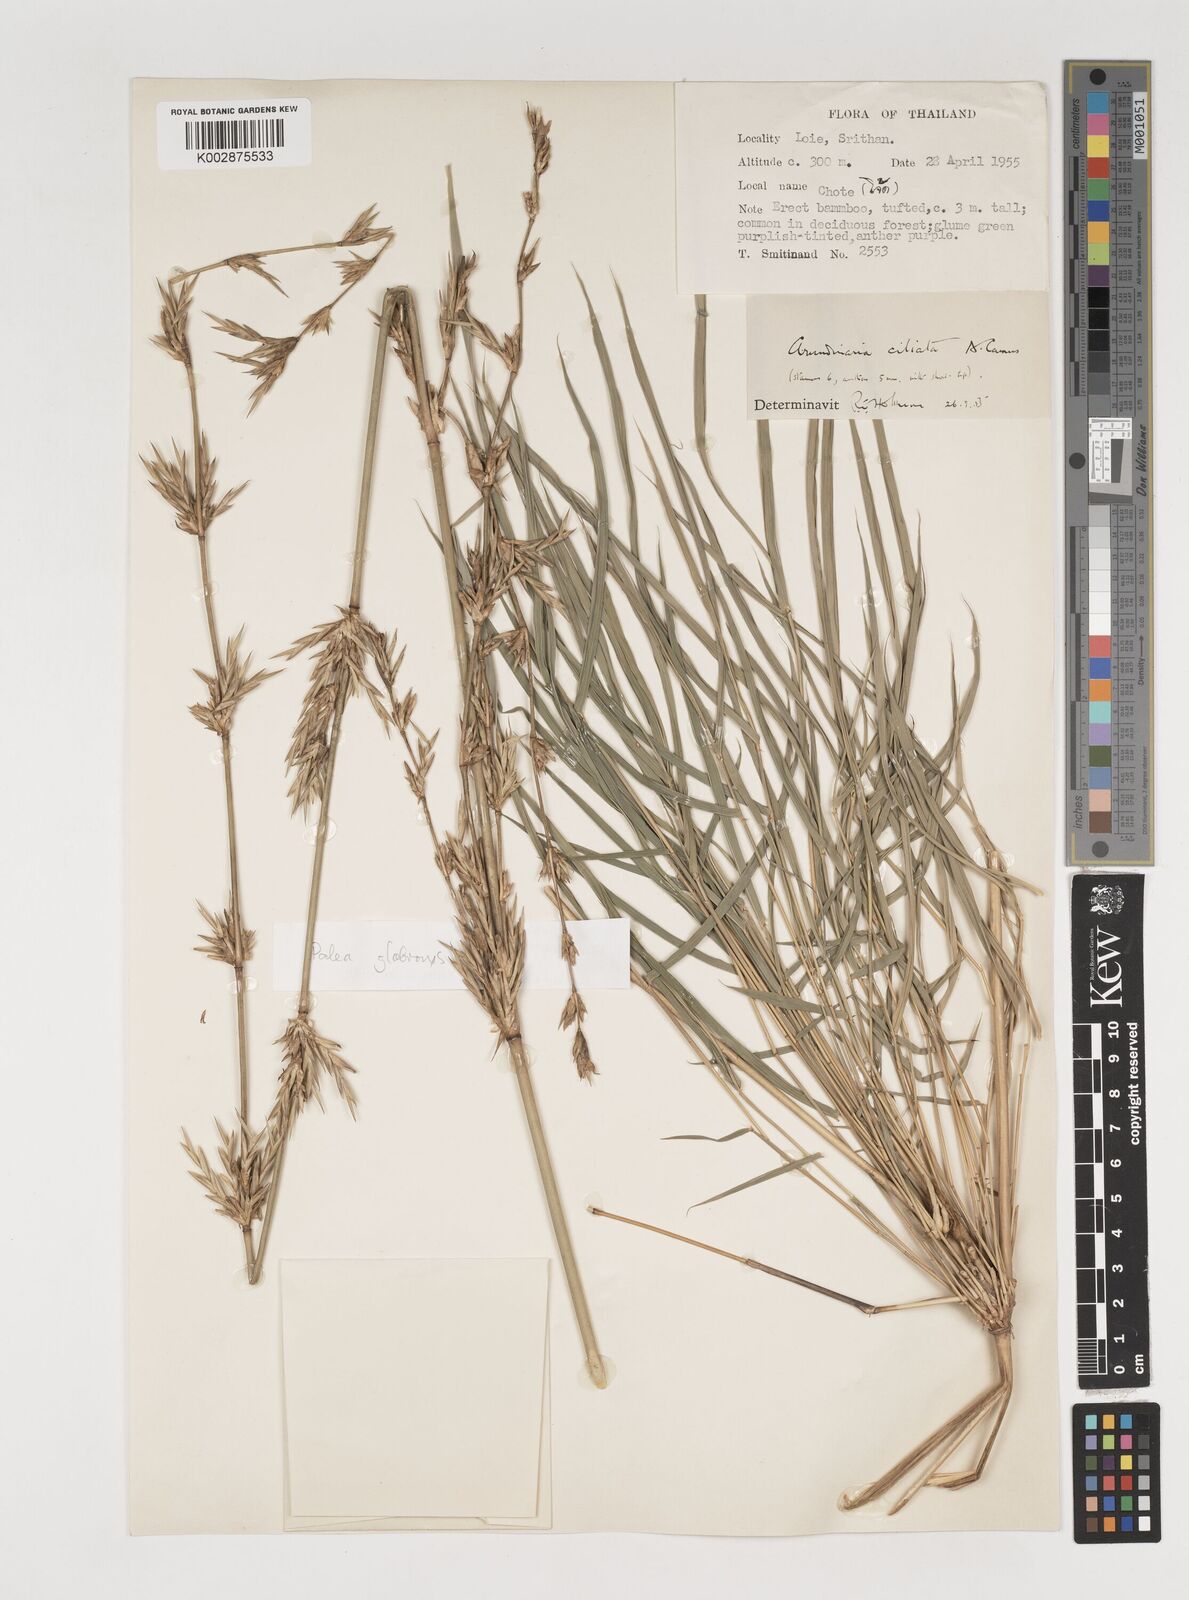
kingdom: Plantae
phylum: Tracheophyta
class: Liliopsida
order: Poales
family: Poaceae
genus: Vietnamosasa
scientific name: Vietnamosasa ciliata
